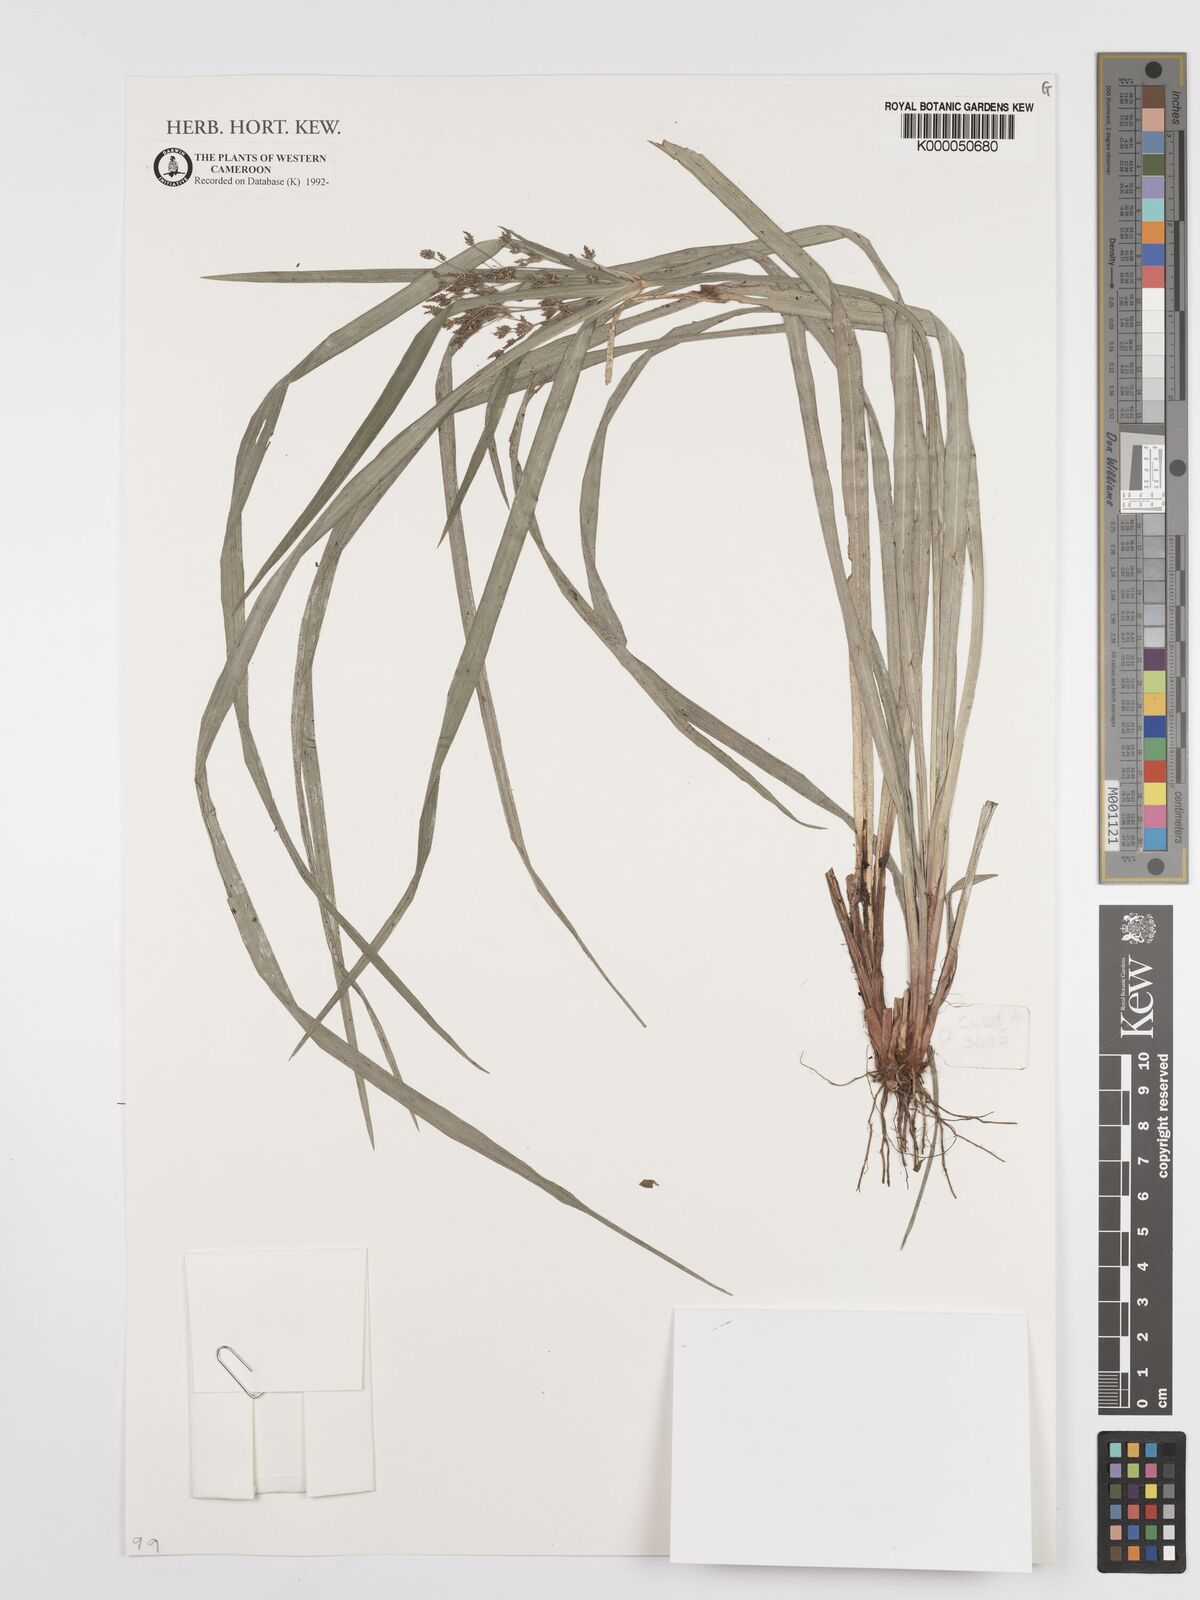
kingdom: Plantae
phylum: Tracheophyta
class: Liliopsida
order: Poales
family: Cyperaceae
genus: Cyperus
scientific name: Cyperus buchholzii
